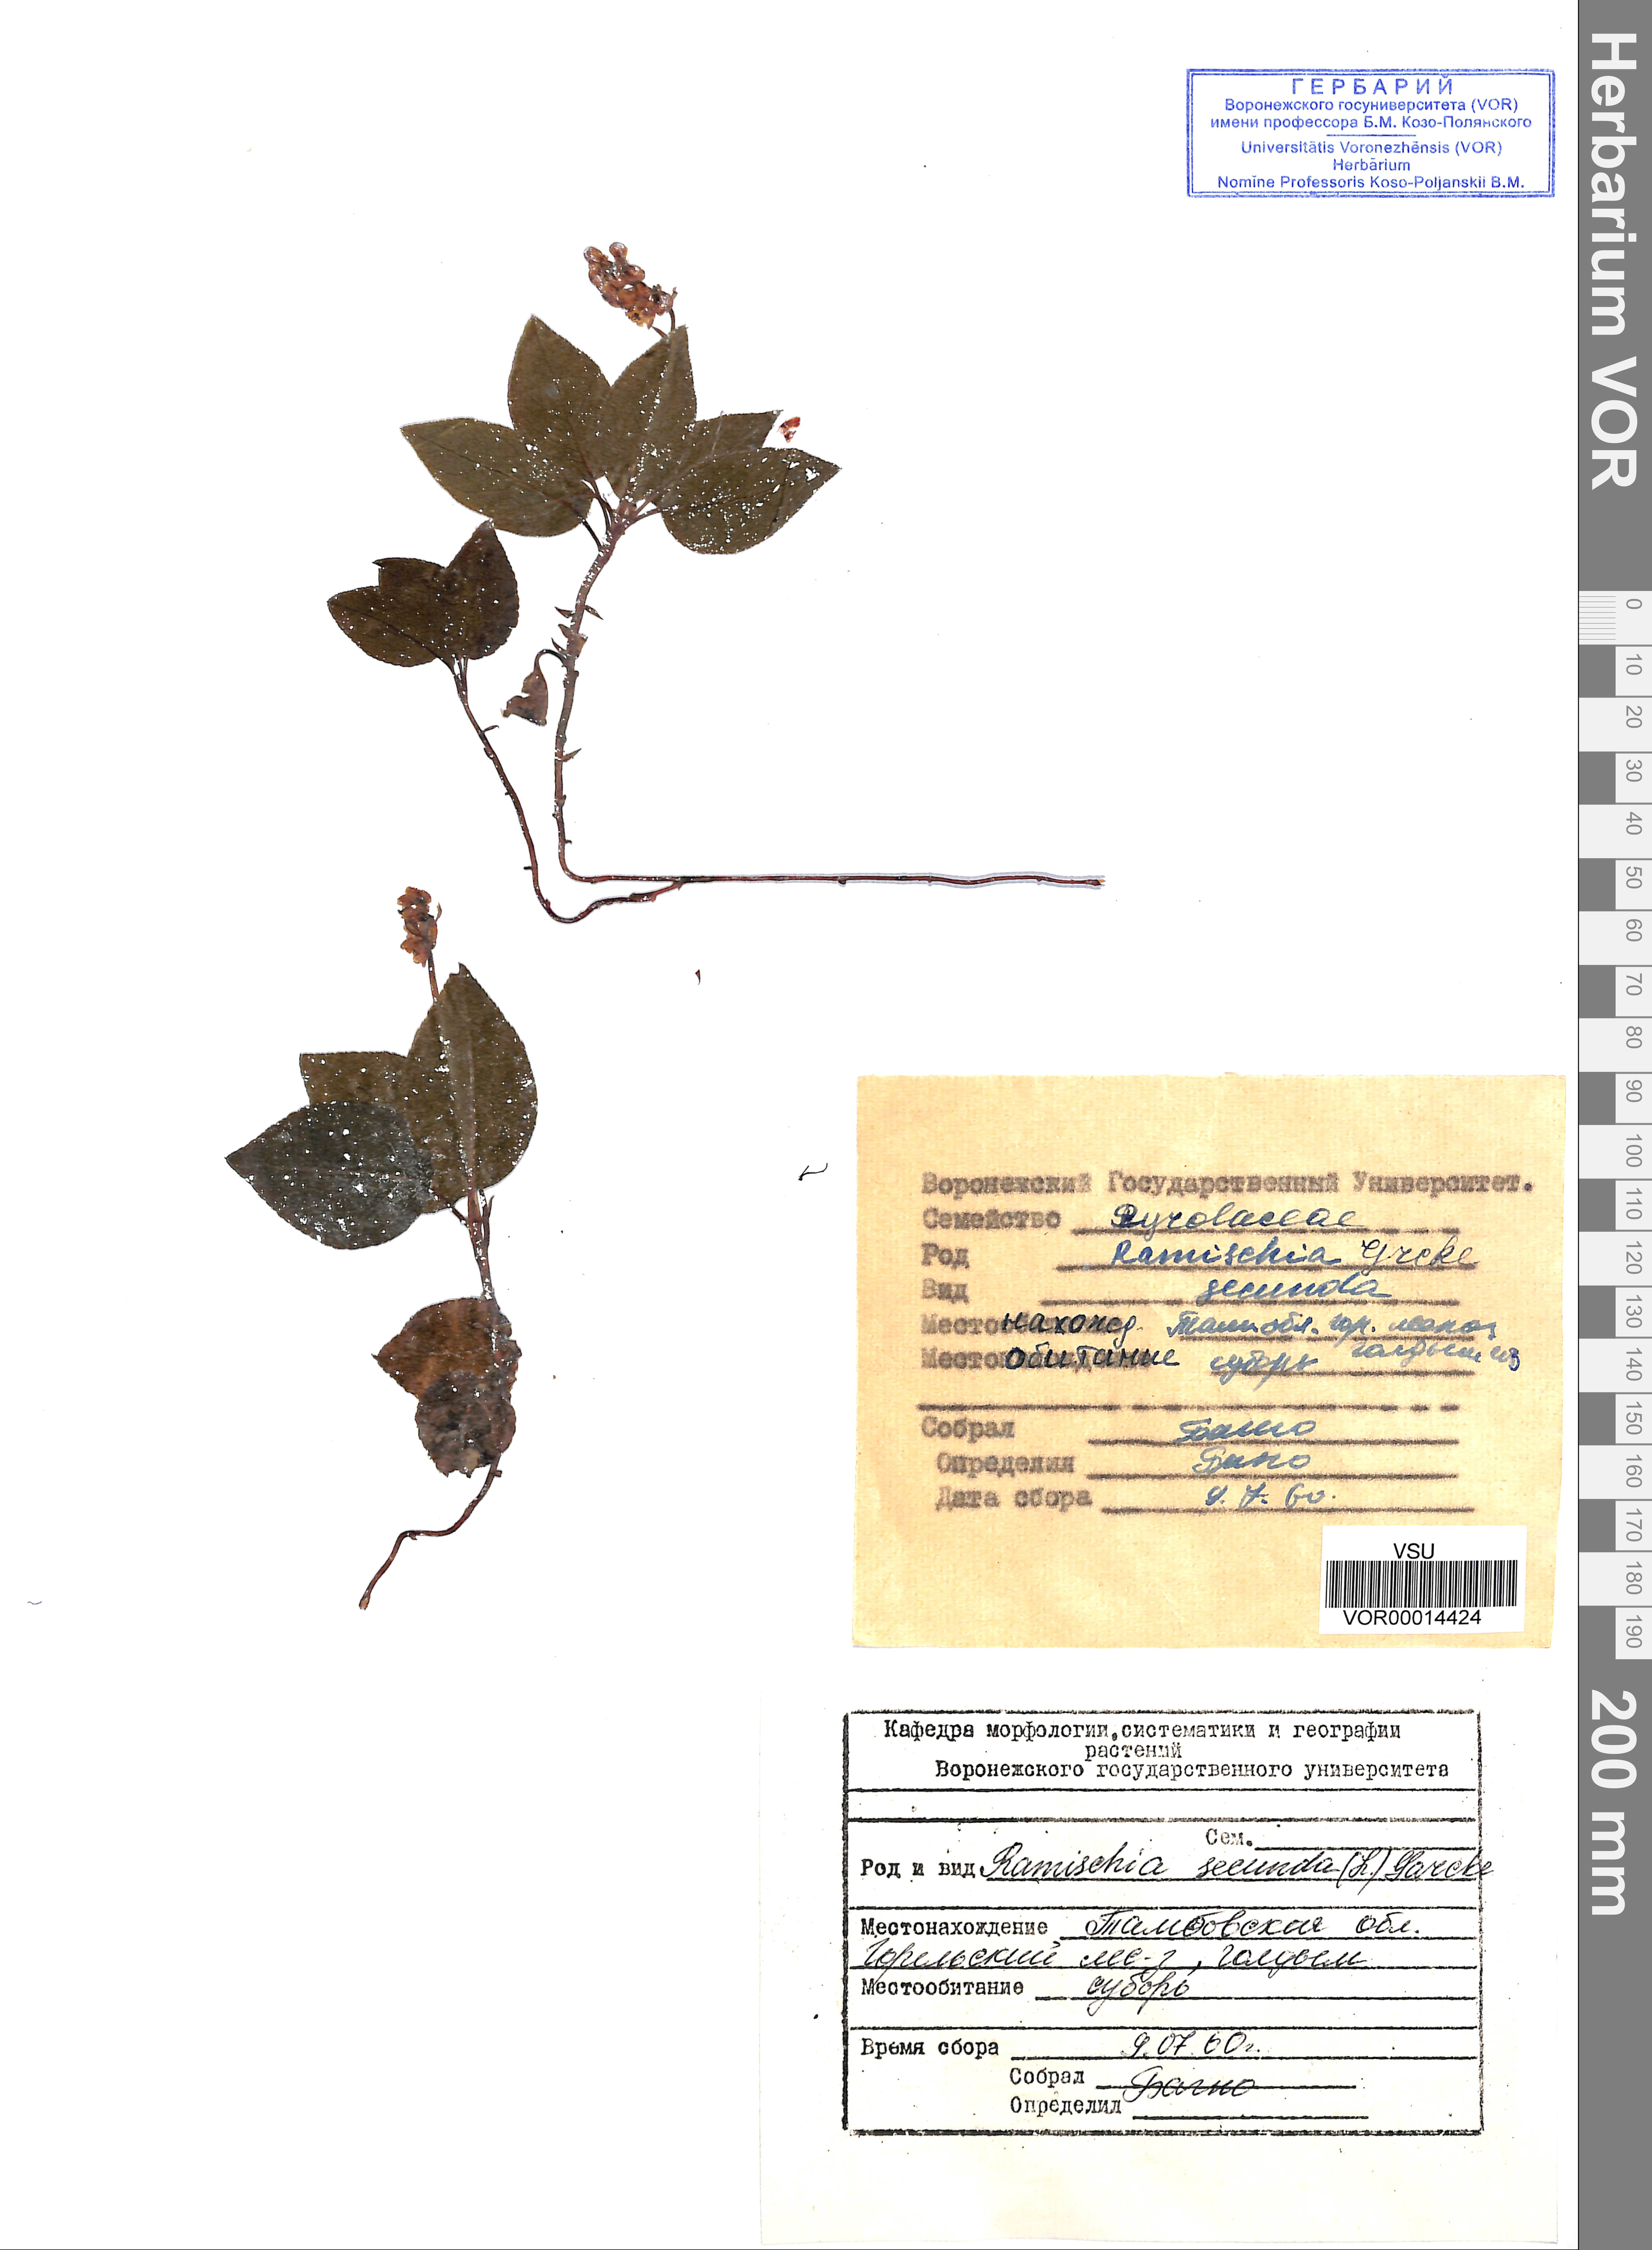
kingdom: Plantae
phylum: Tracheophyta
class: Magnoliopsida
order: Ericales
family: Ericaceae
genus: Orthilia
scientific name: Orthilia secunda
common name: One-sided orthilia
